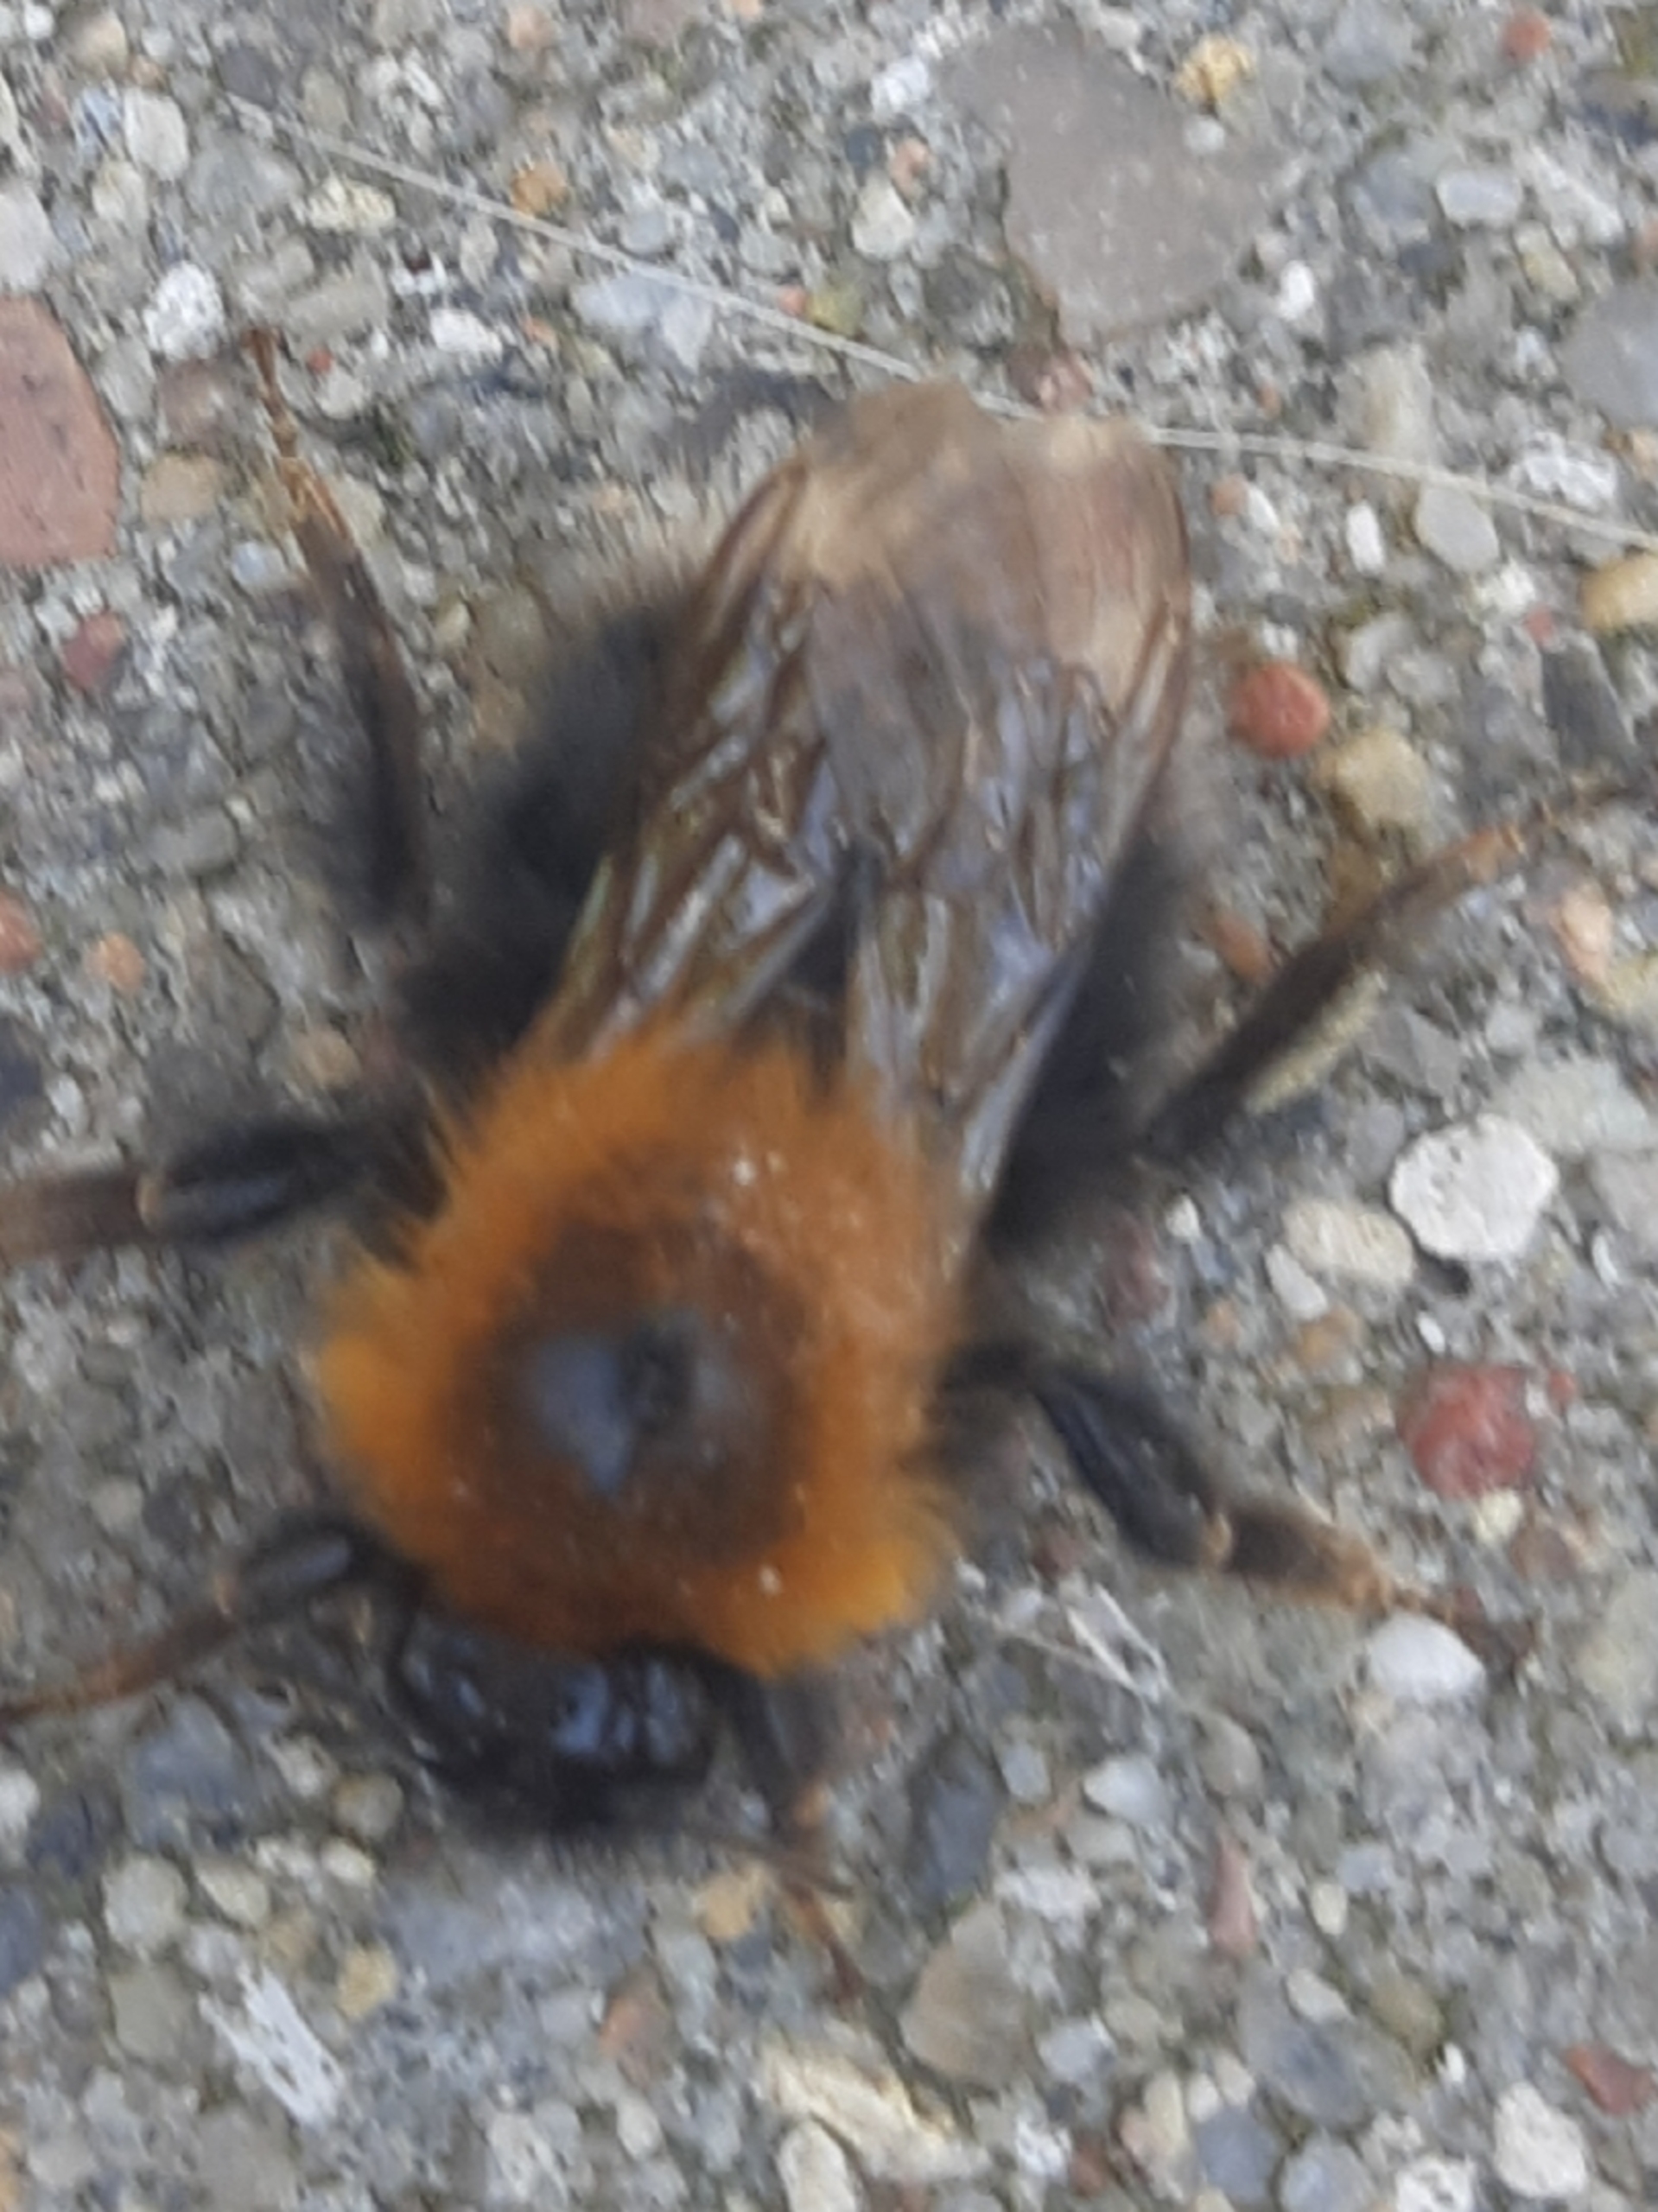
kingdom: Animalia
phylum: Arthropoda
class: Insecta
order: Hymenoptera
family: Apidae
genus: Bombus
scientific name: Bombus hypnorum
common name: Hushumle
